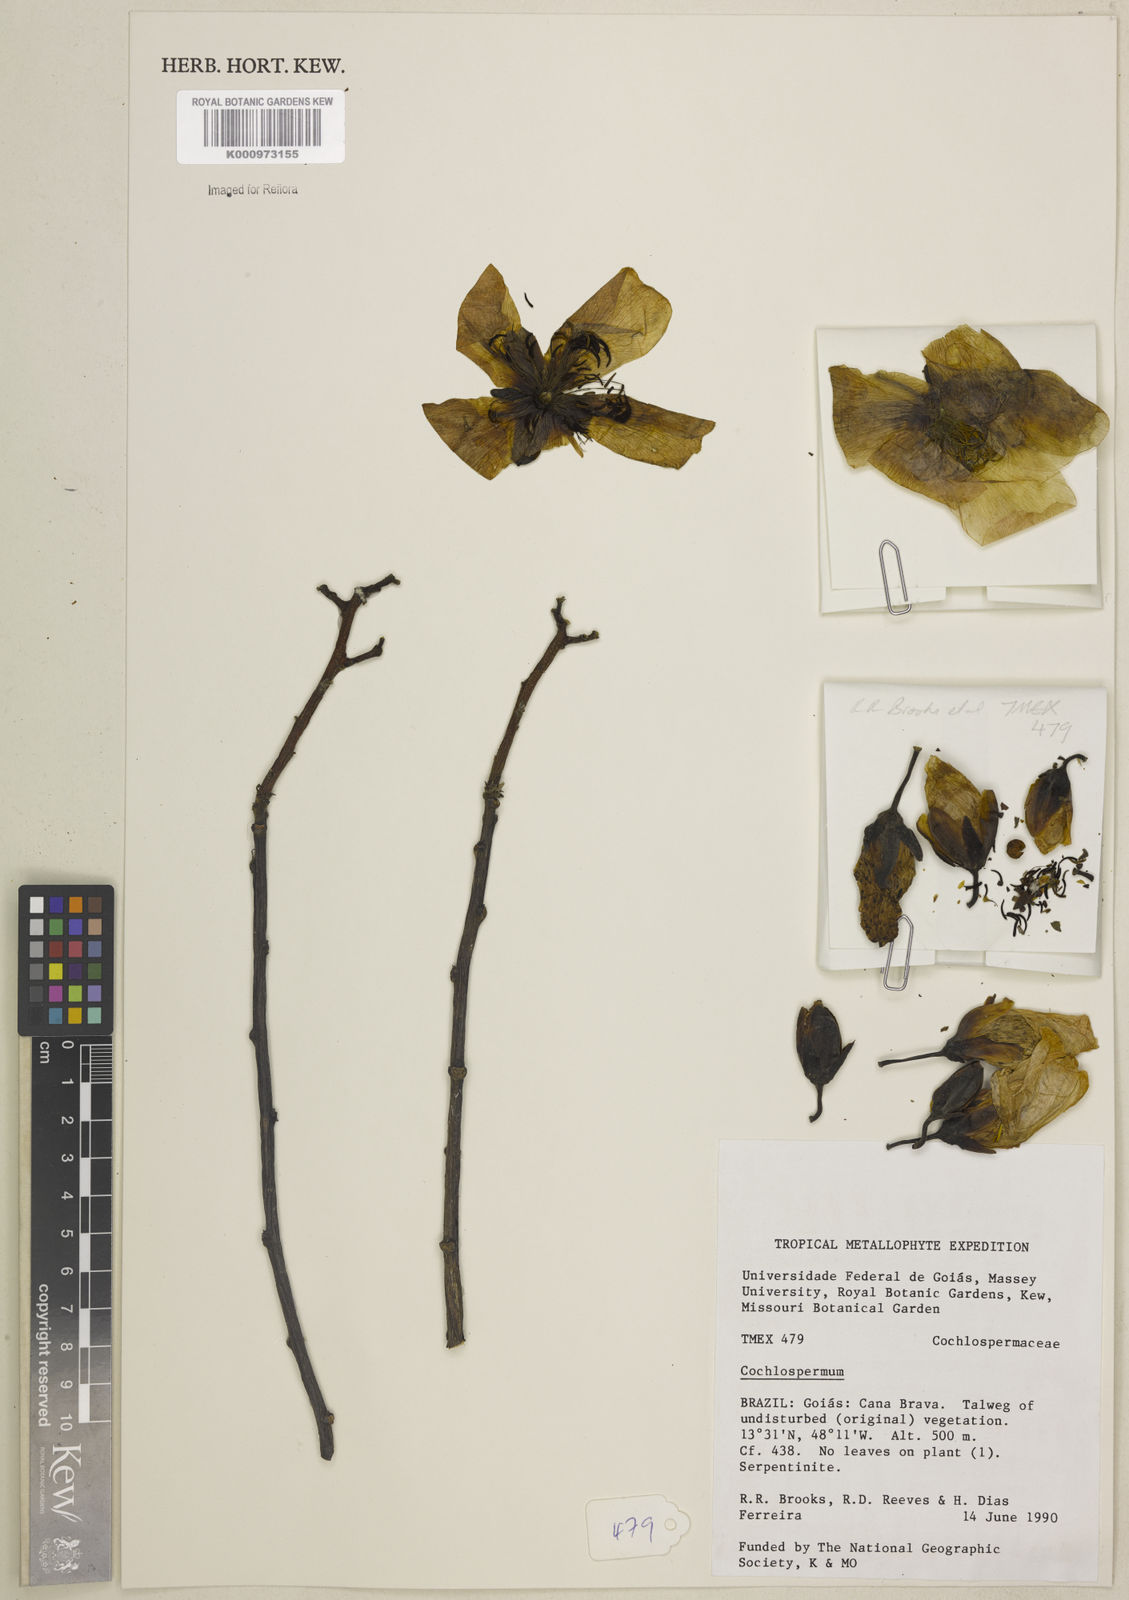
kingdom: Plantae
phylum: Tracheophyta
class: Magnoliopsida
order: Malvales
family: Cochlospermaceae
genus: Cochlospermum
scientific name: Cochlospermum
